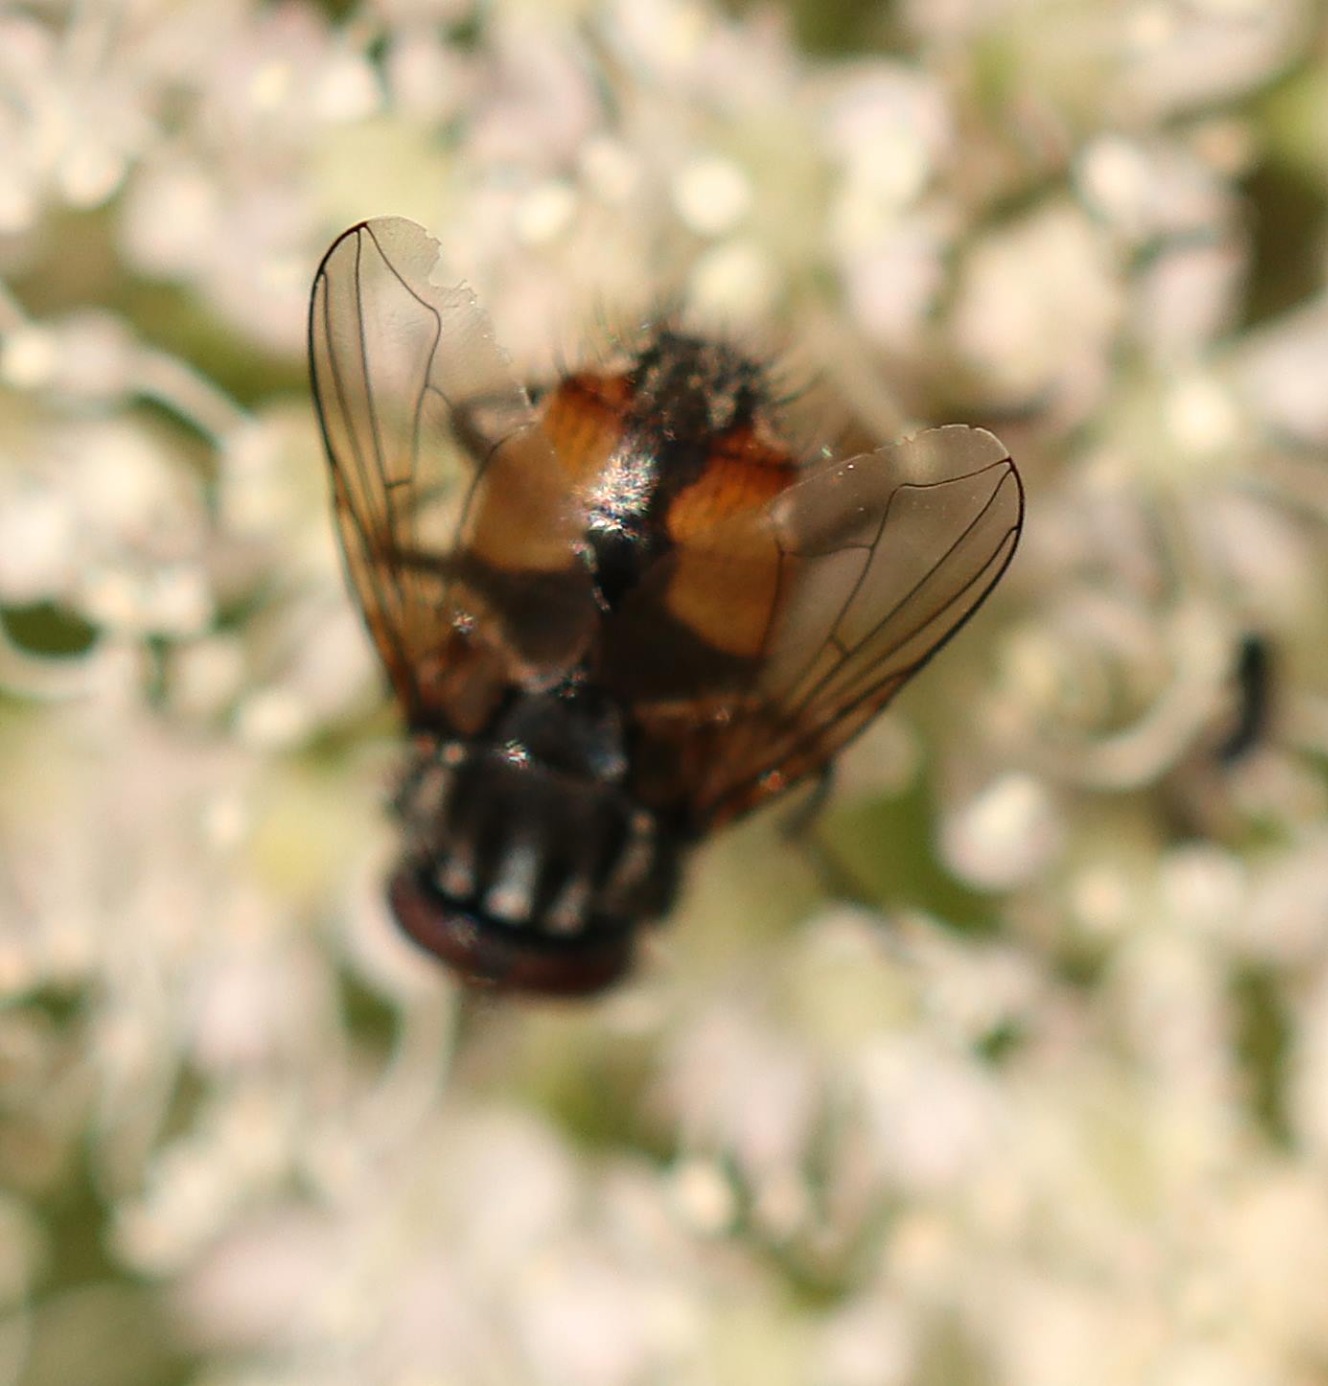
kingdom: Animalia
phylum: Arthropoda
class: Insecta
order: Diptera
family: Muscidae
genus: Musca
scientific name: Musca autumnalis
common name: Kvægflue
